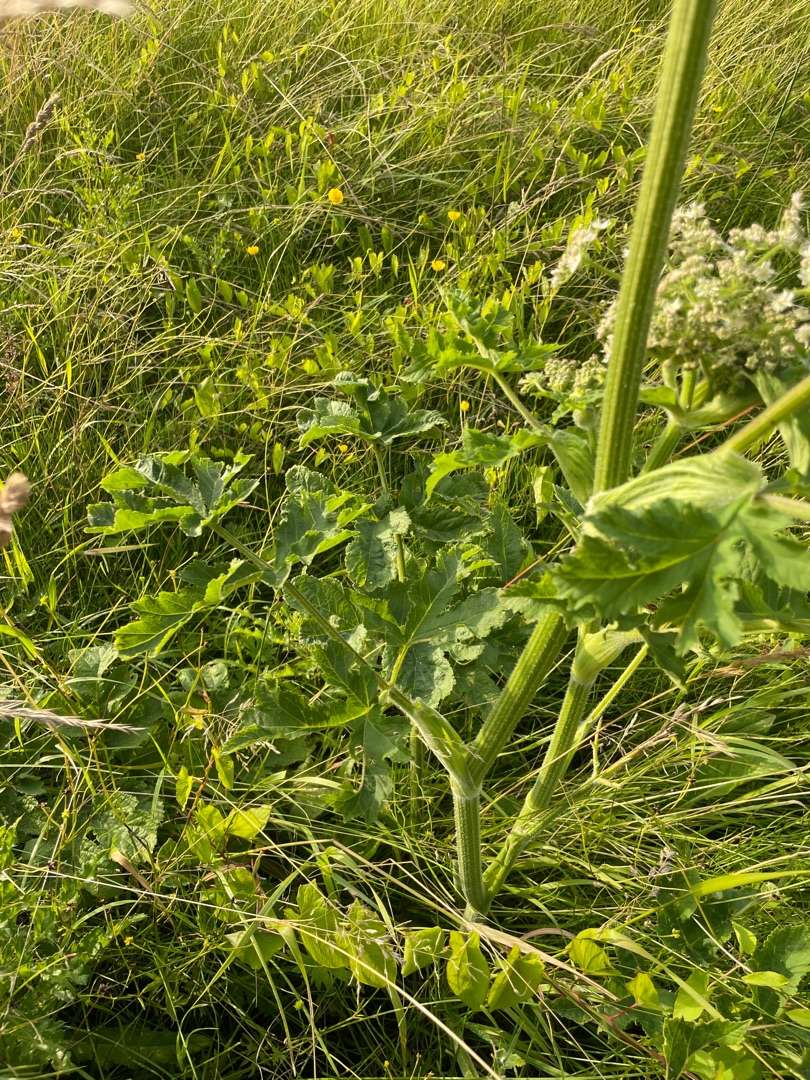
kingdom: Plantae
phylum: Tracheophyta
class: Magnoliopsida
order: Apiales
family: Apiaceae
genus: Heracleum
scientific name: Heracleum sphondylium
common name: Almindelig bjørneklo
